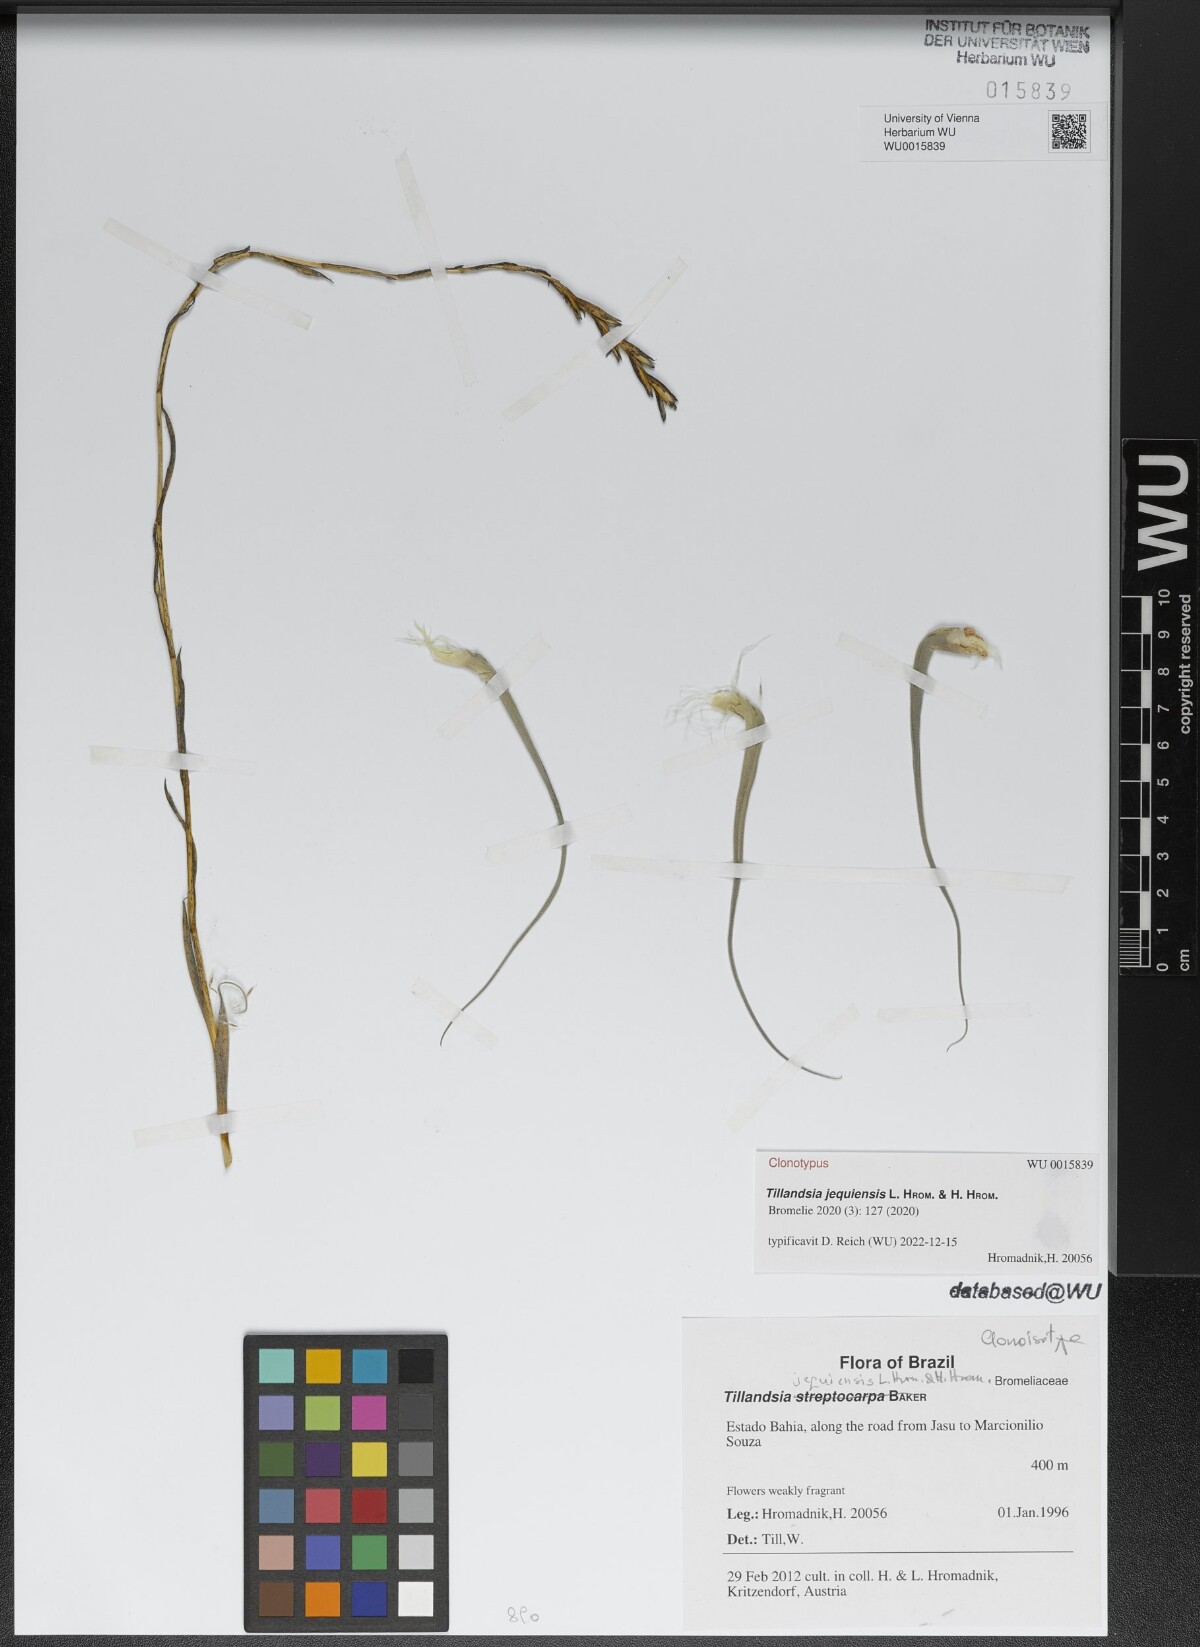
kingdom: Plantae
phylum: Tracheophyta
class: Liliopsida
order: Poales
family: Bromeliaceae
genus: Tillandsia
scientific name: Tillandsia jequiensis
